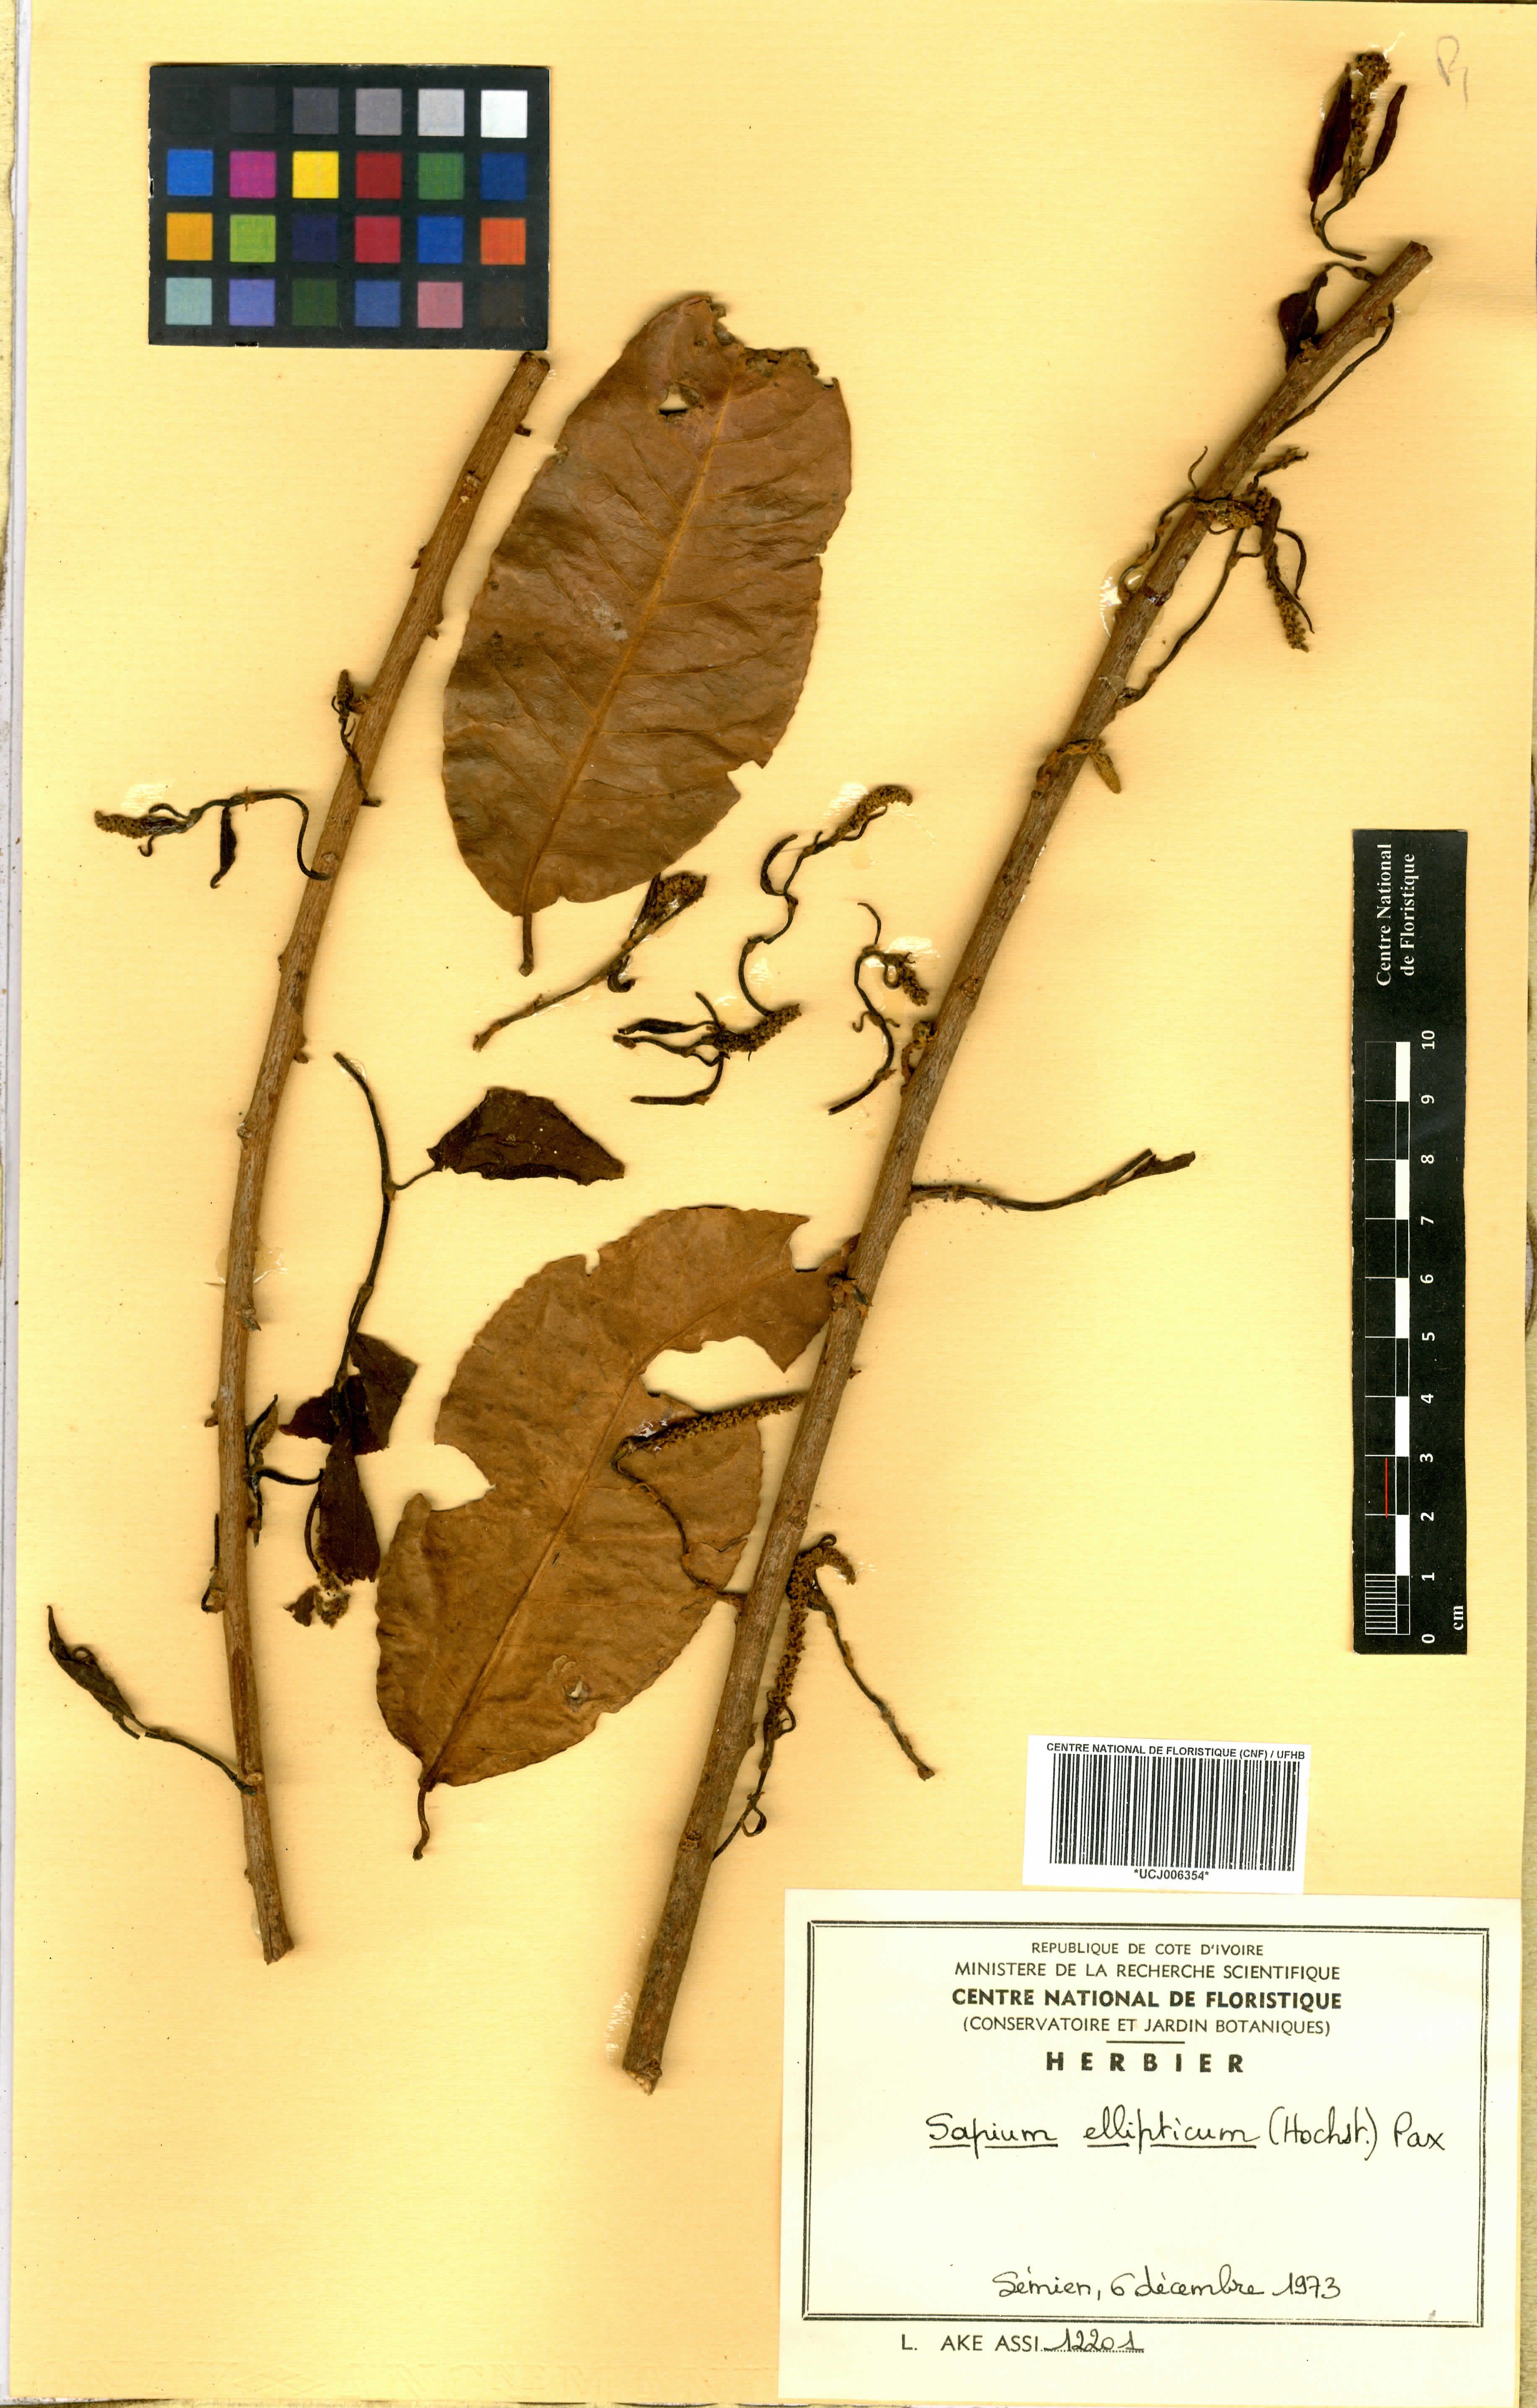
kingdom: Plantae
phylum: Tracheophyta
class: Magnoliopsida
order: Malpighiales
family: Euphorbiaceae
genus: Shirakiopsis
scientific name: Shirakiopsis elliptica
